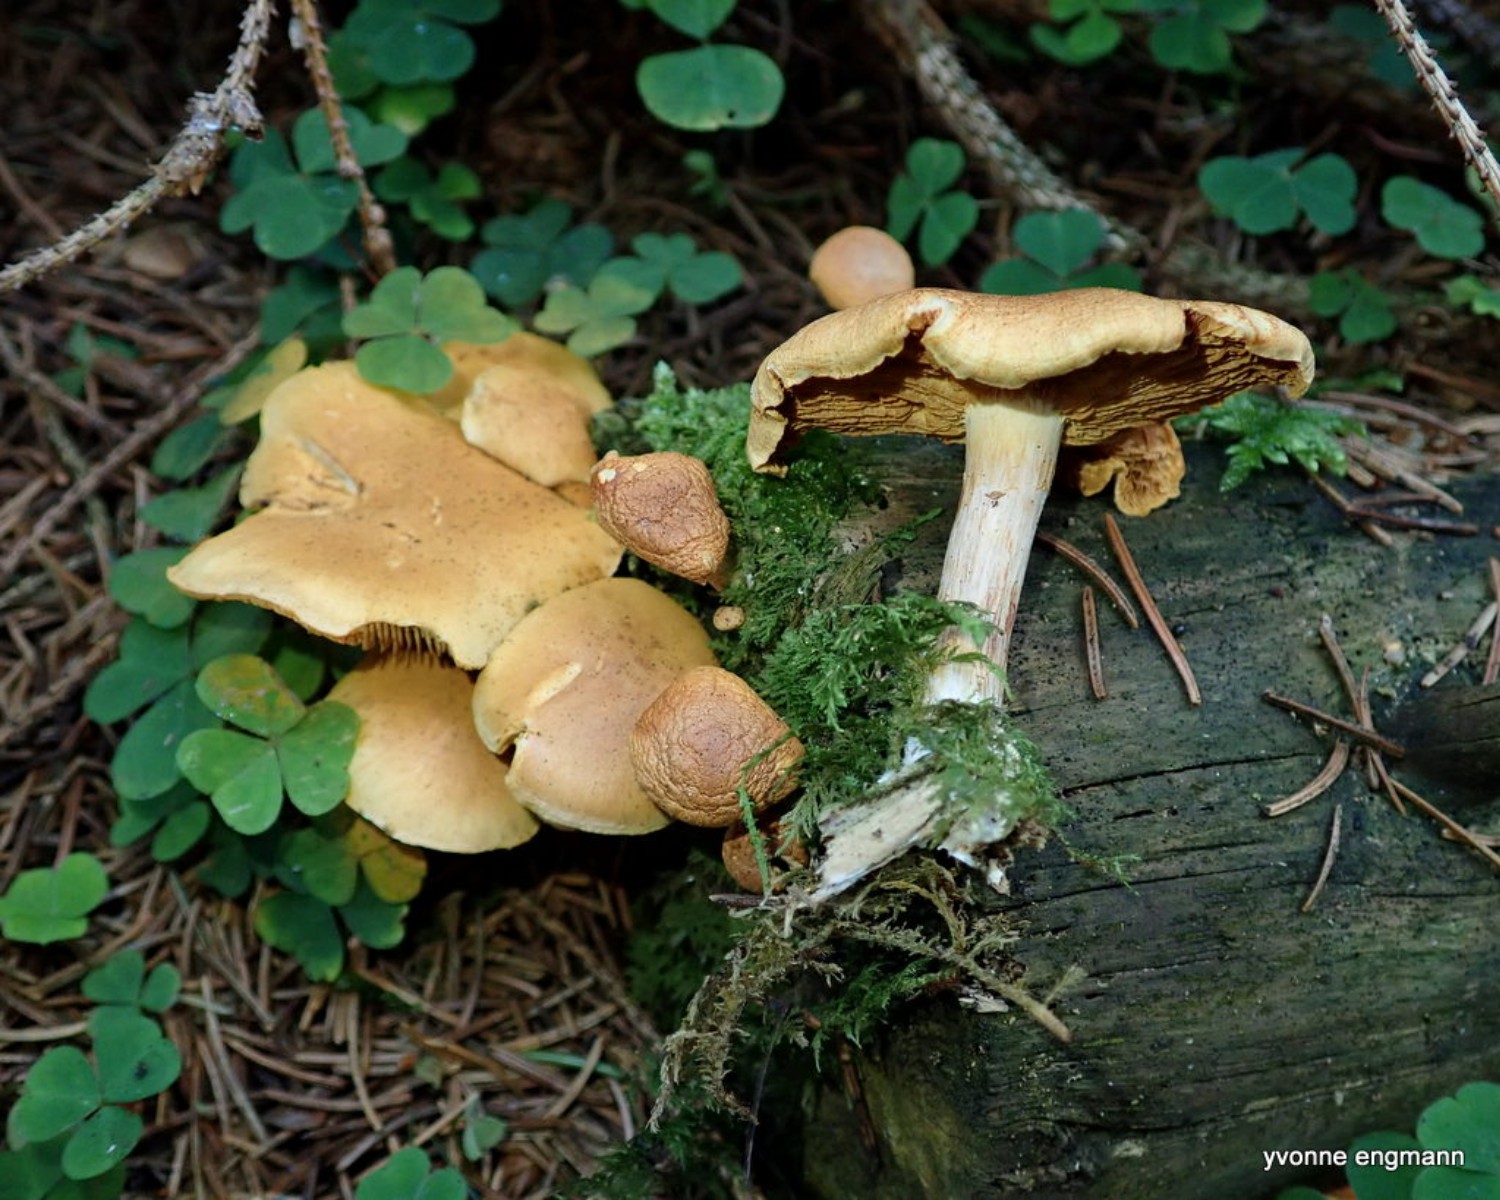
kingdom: Fungi
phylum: Basidiomycota
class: Agaricomycetes
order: Agaricales
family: Hymenogastraceae
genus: Gymnopilus
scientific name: Gymnopilus penetrans
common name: plettet flammehat
